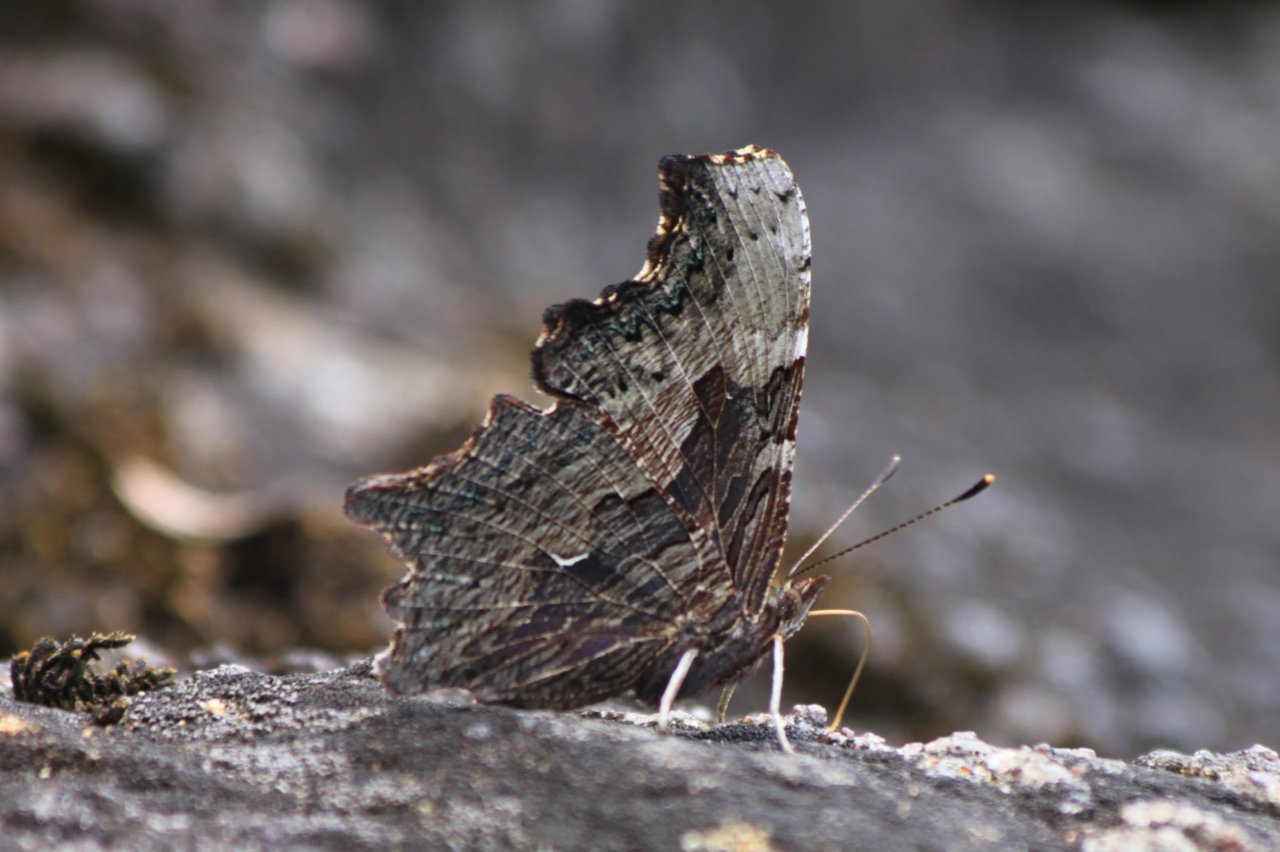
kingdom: Animalia
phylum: Arthropoda
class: Insecta
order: Lepidoptera
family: Nymphalidae
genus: Polygonia
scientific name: Polygonia progne
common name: Gray Comma
